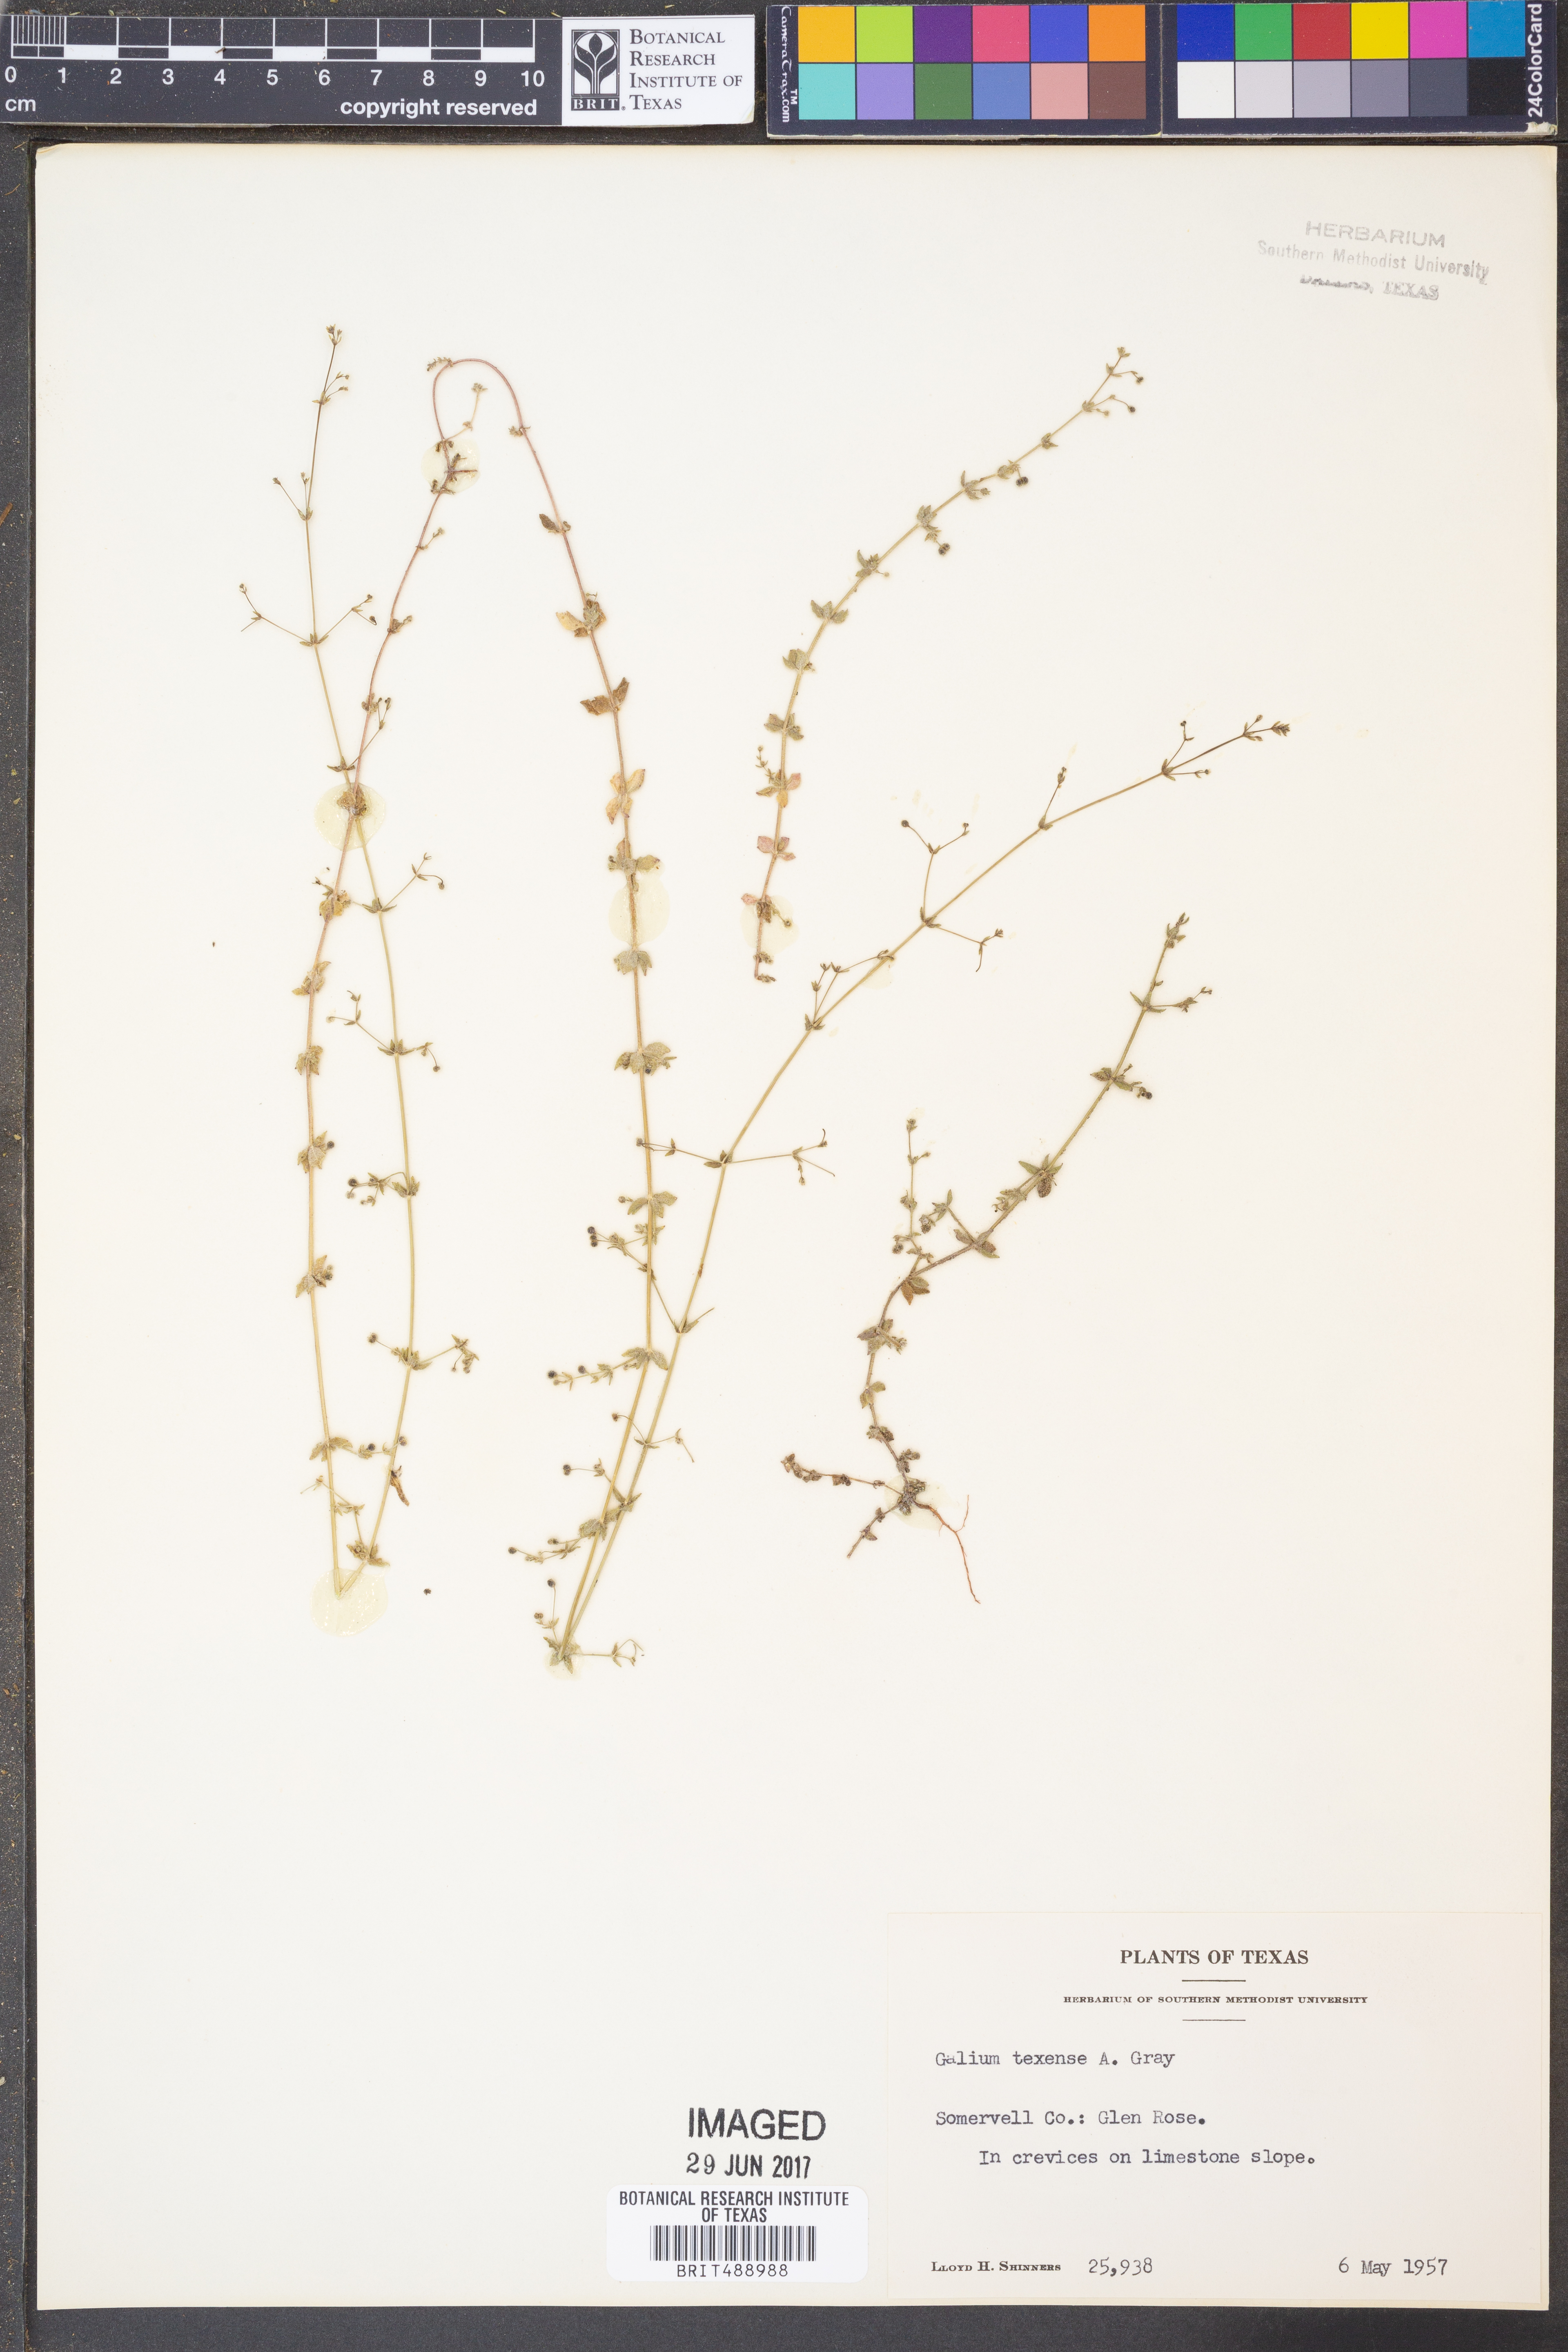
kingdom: Plantae
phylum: Tracheophyta
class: Magnoliopsida
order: Gentianales
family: Rubiaceae
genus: Galium
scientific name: Galium texense
